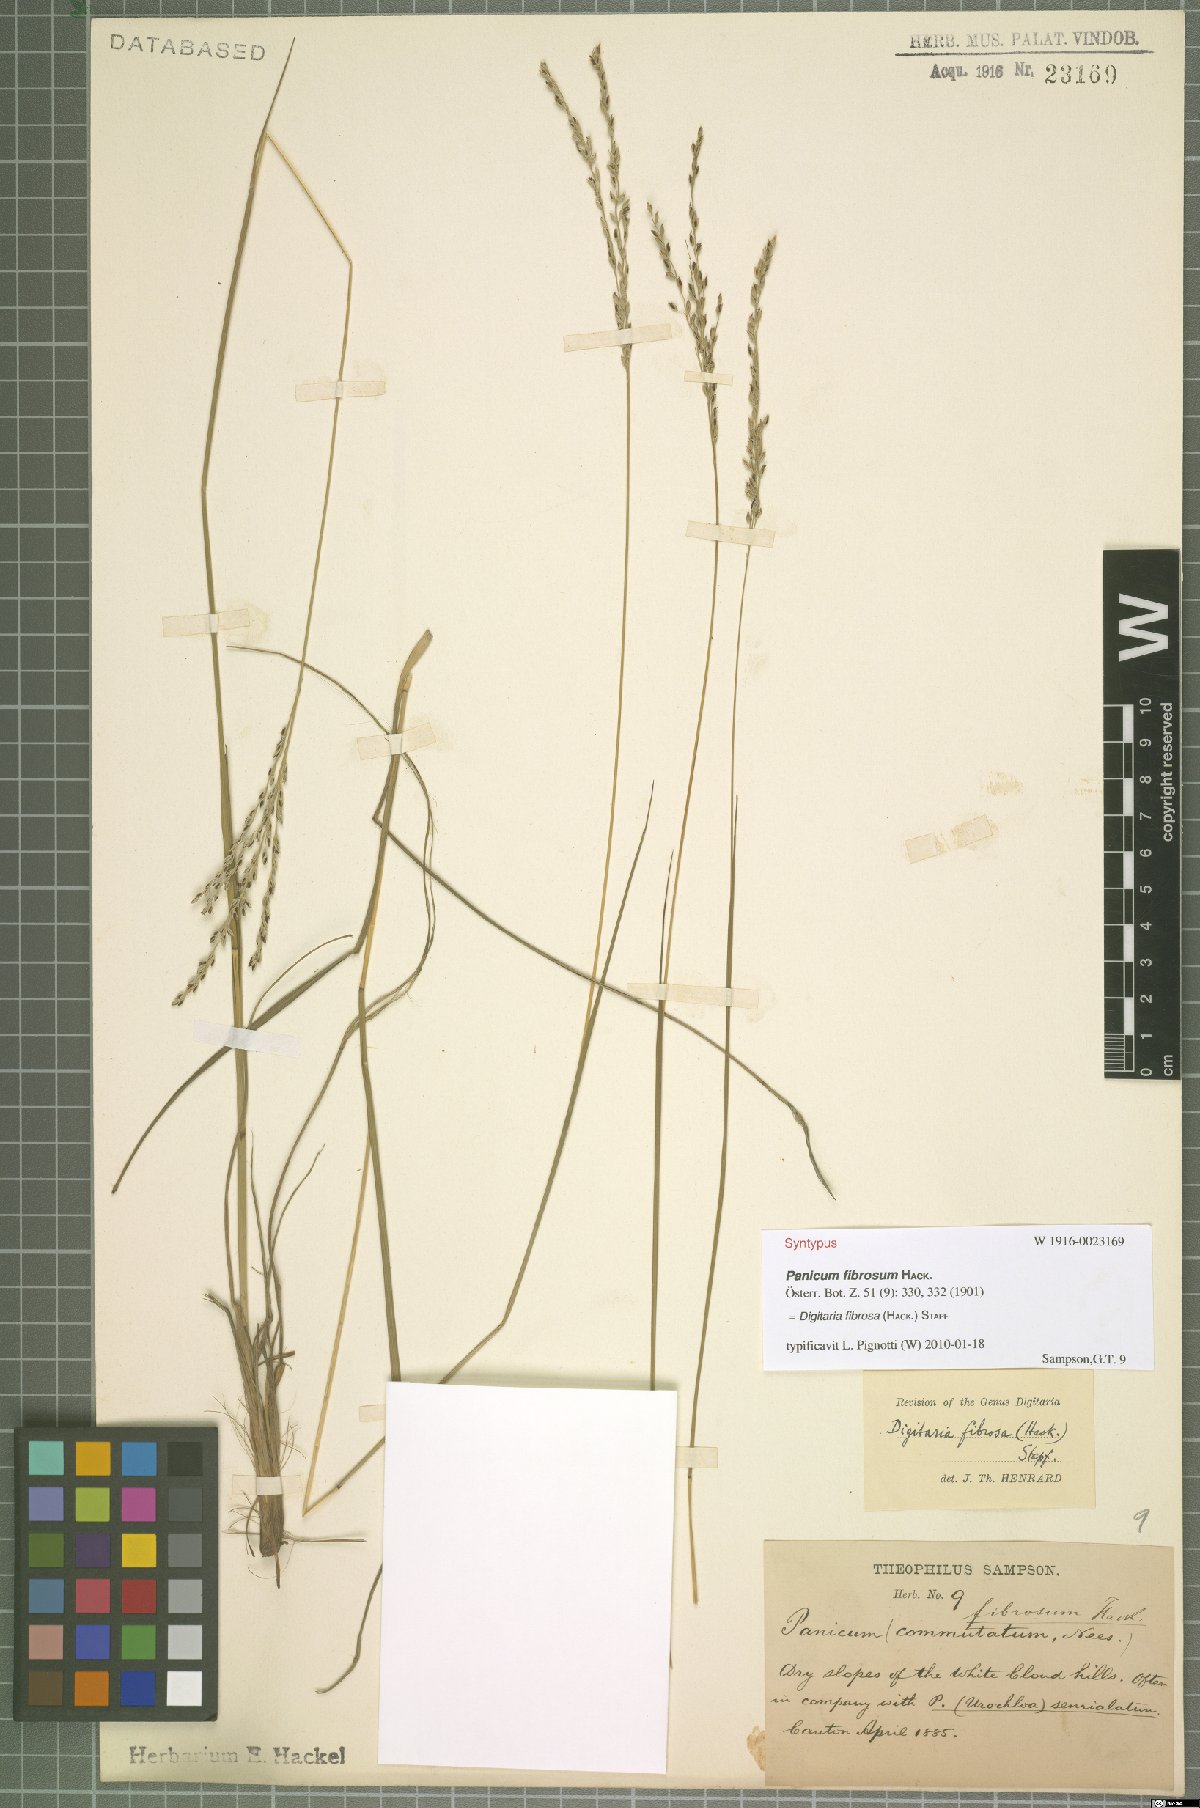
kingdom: Plantae
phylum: Tracheophyta
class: Liliopsida
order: Poales
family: Poaceae
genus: Digitaria
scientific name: Digitaria setifolia
